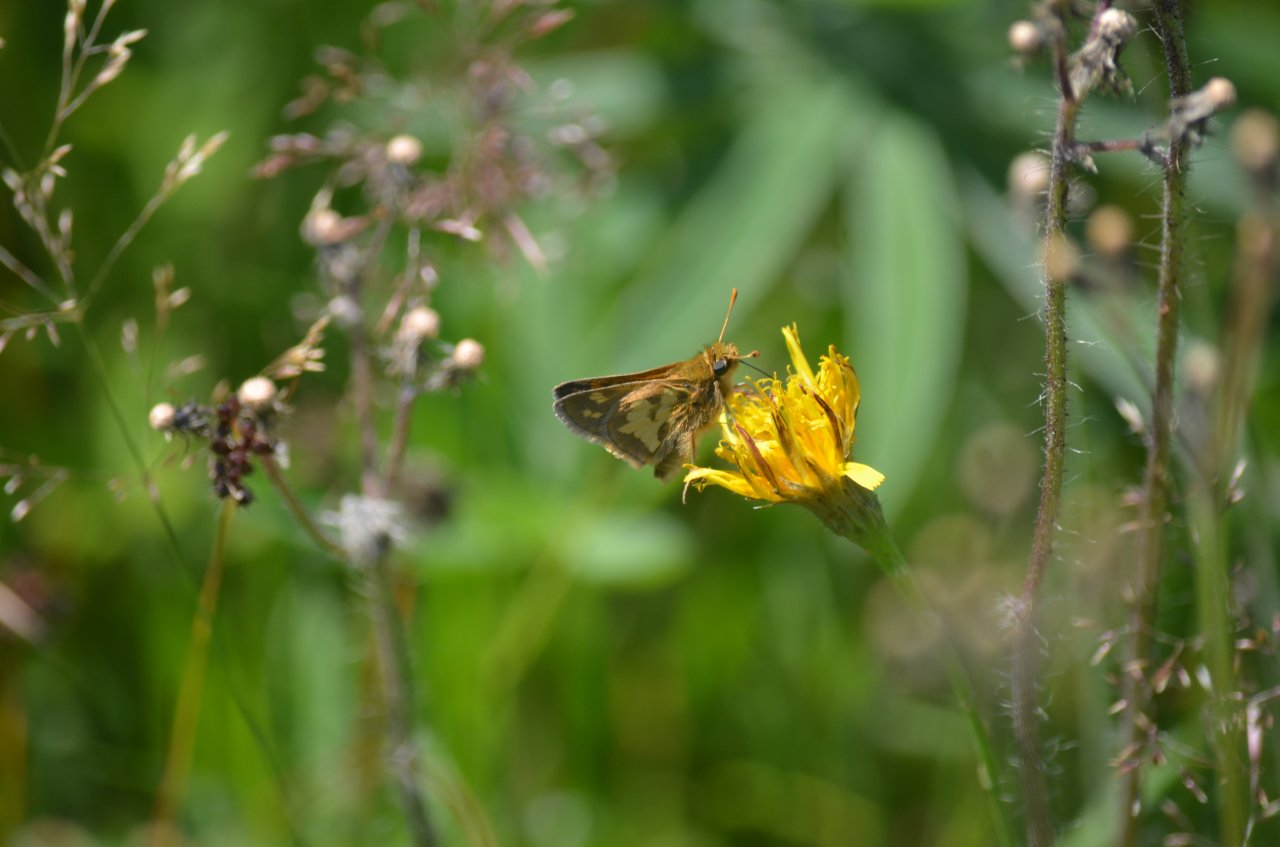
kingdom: Animalia
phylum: Arthropoda
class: Insecta
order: Lepidoptera
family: Hesperiidae
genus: Polites
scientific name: Polites coras
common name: Peck's Skipper
